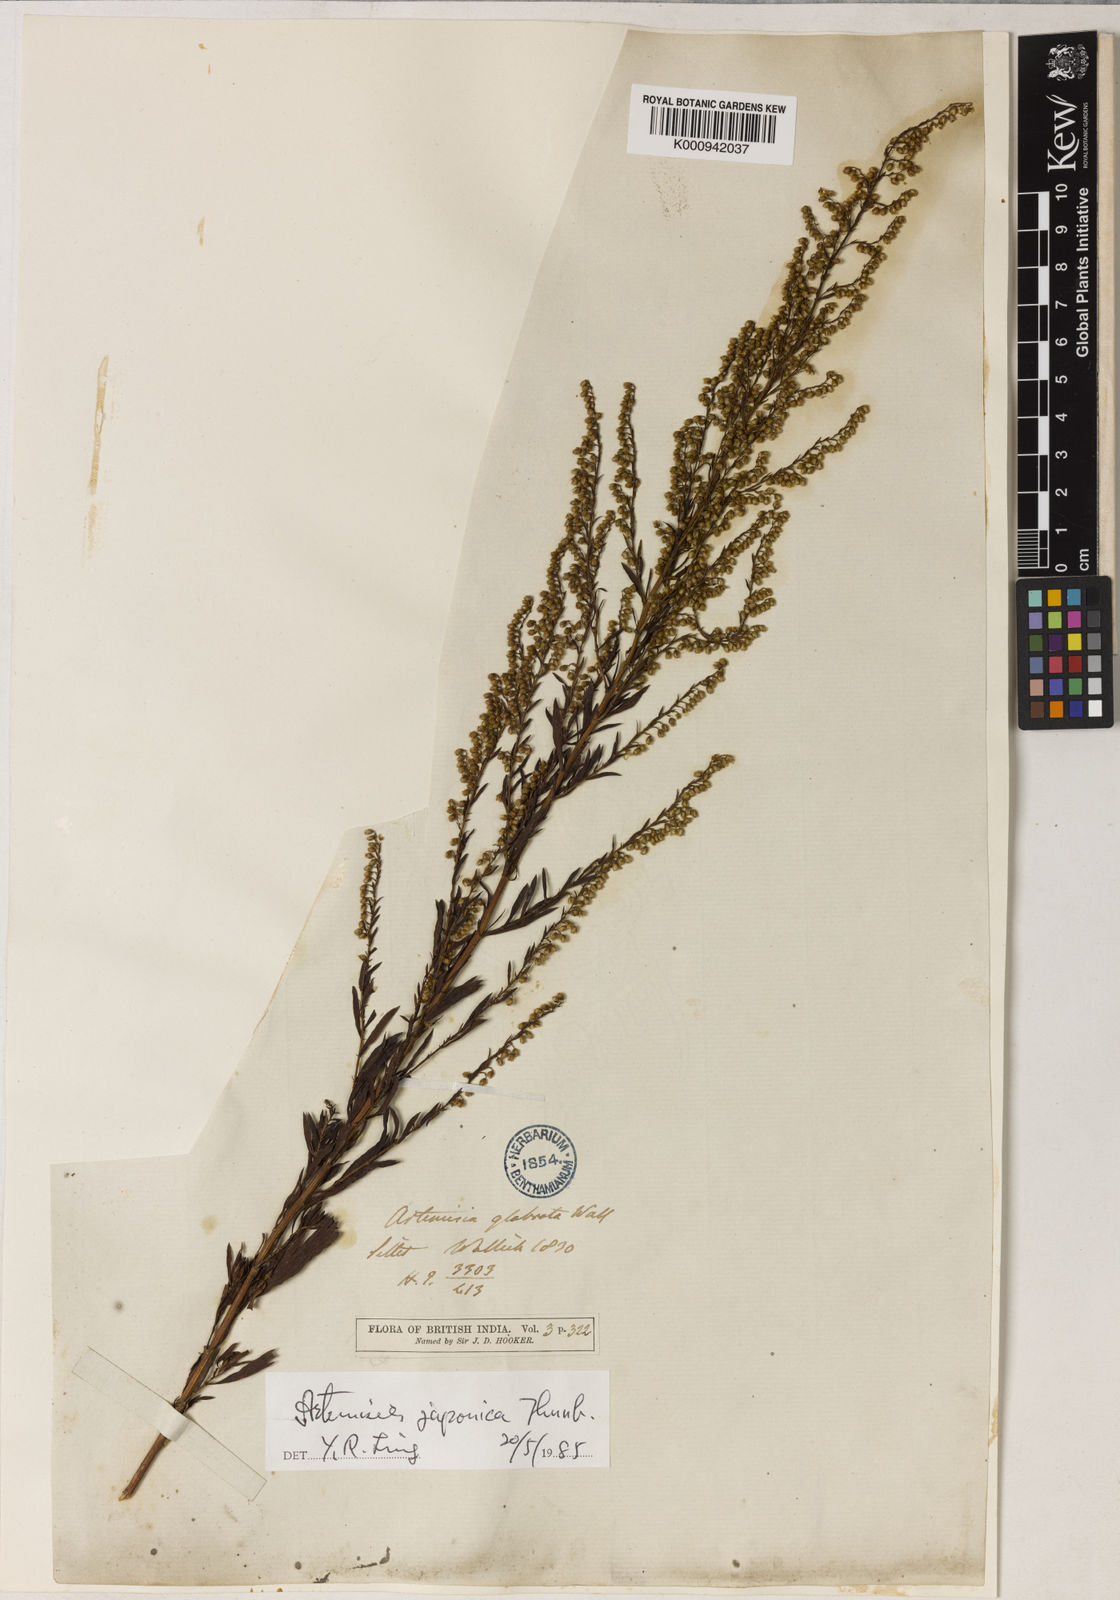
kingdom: Plantae
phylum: Tracheophyta
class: Magnoliopsida
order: Asterales
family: Asteraceae
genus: Artemisia
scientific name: Artemisia japonica
